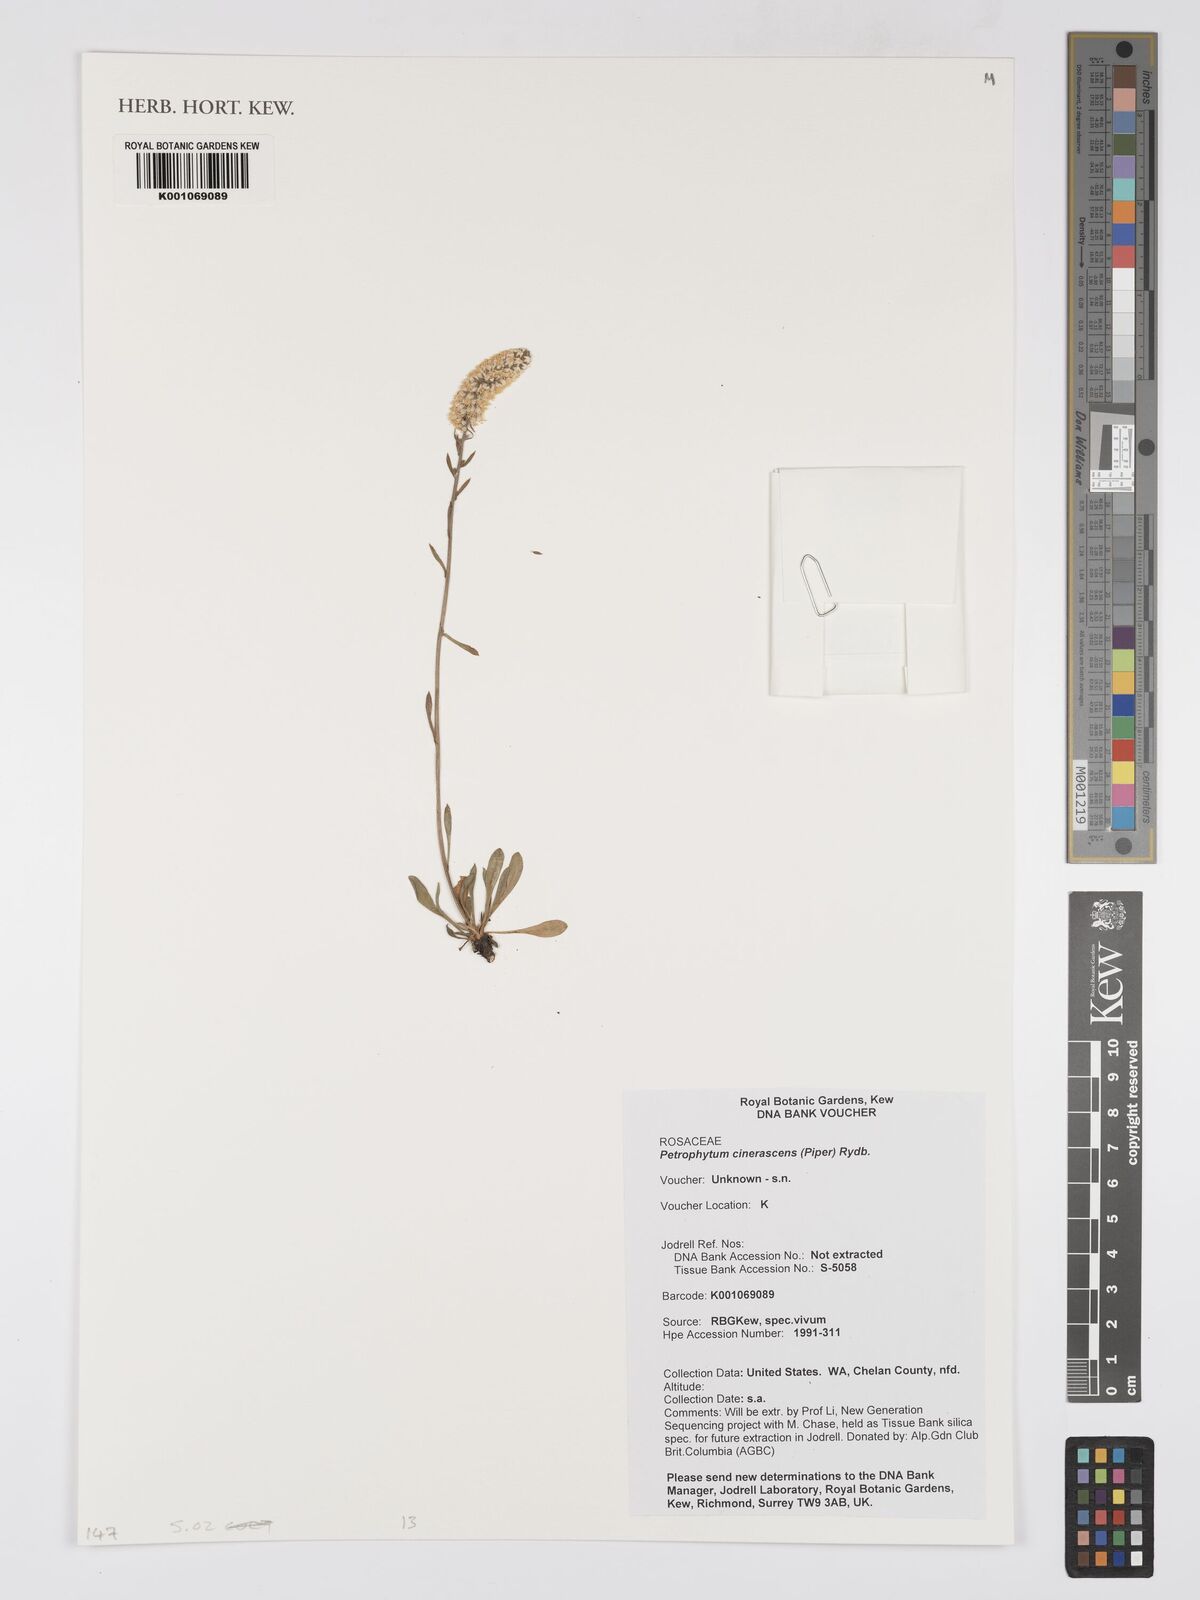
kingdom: Plantae
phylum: Tracheophyta
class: Magnoliopsida
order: Rosales
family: Rosaceae
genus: Petrophytum
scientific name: Petrophytum cinerascens
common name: Chelan rockmat
